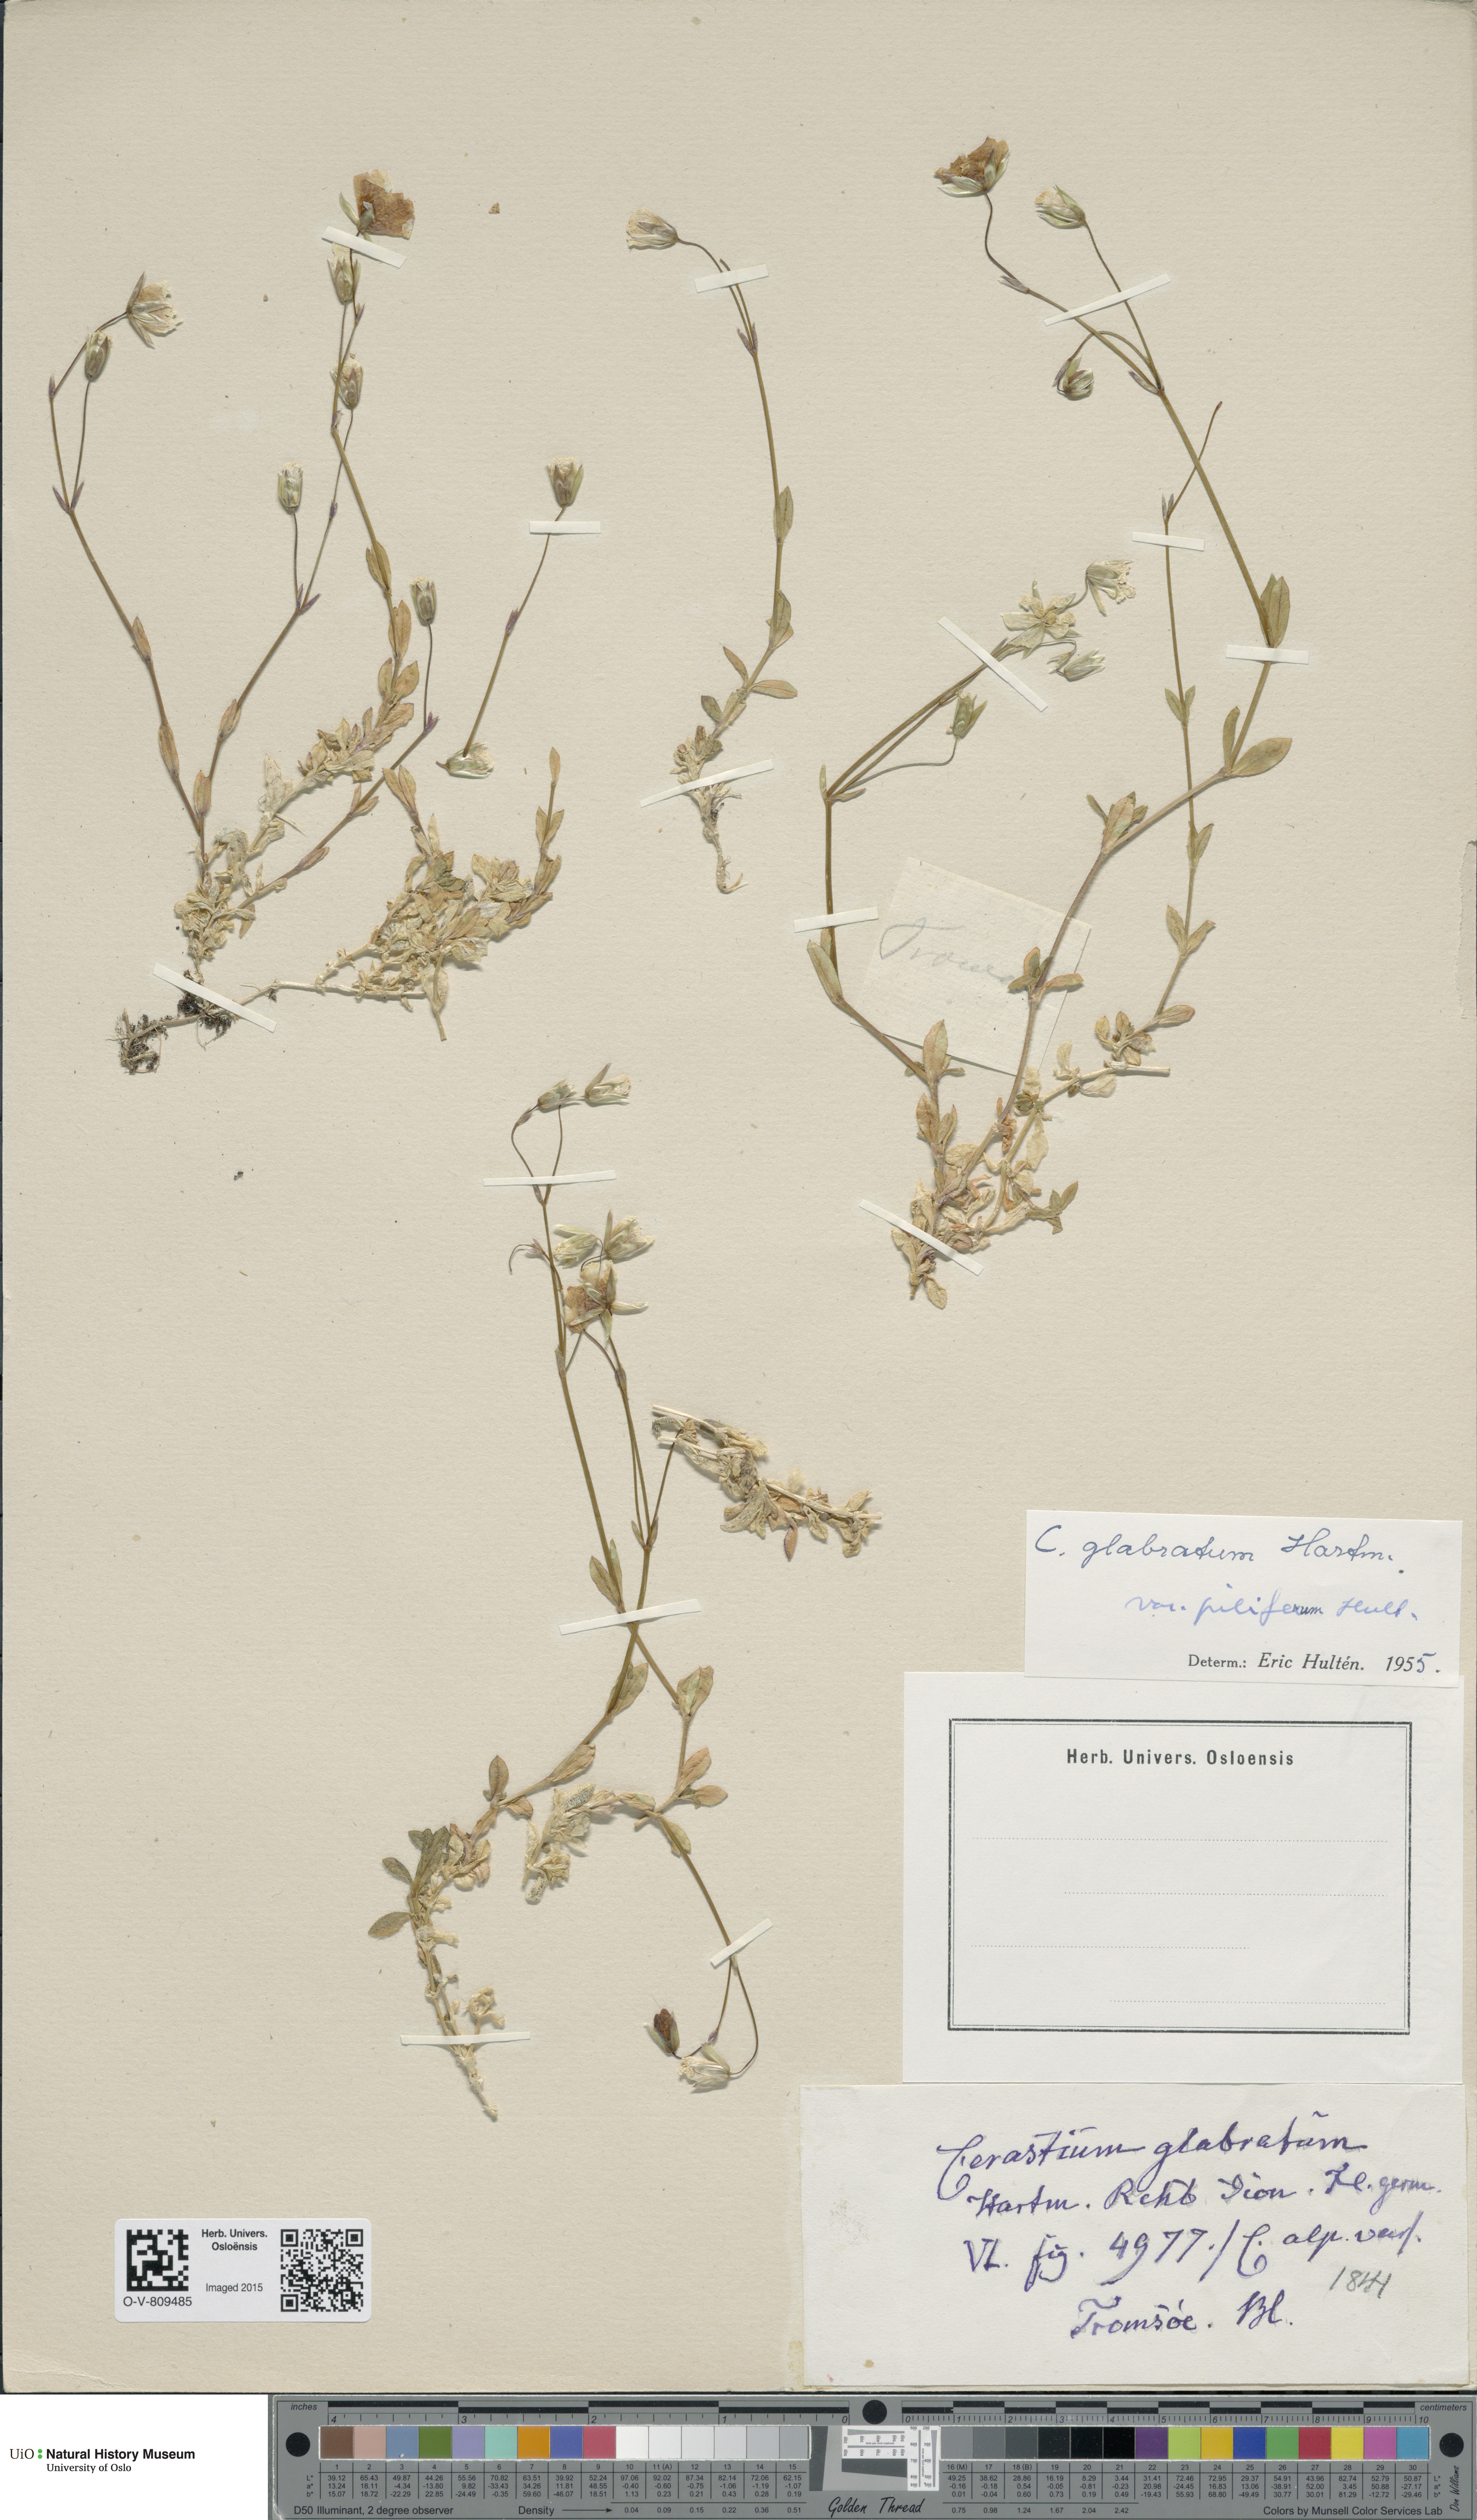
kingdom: Plantae
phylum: Tracheophyta
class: Magnoliopsida
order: Caryophyllales
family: Caryophyllaceae
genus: Cerastium
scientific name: Cerastium alpinum
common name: Alpine mouse-ear
